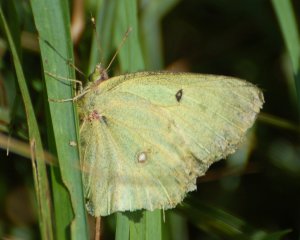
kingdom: Animalia
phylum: Arthropoda
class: Insecta
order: Lepidoptera
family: Pieridae
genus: Colias
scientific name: Colias philodice
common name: Clouded Sulphur
